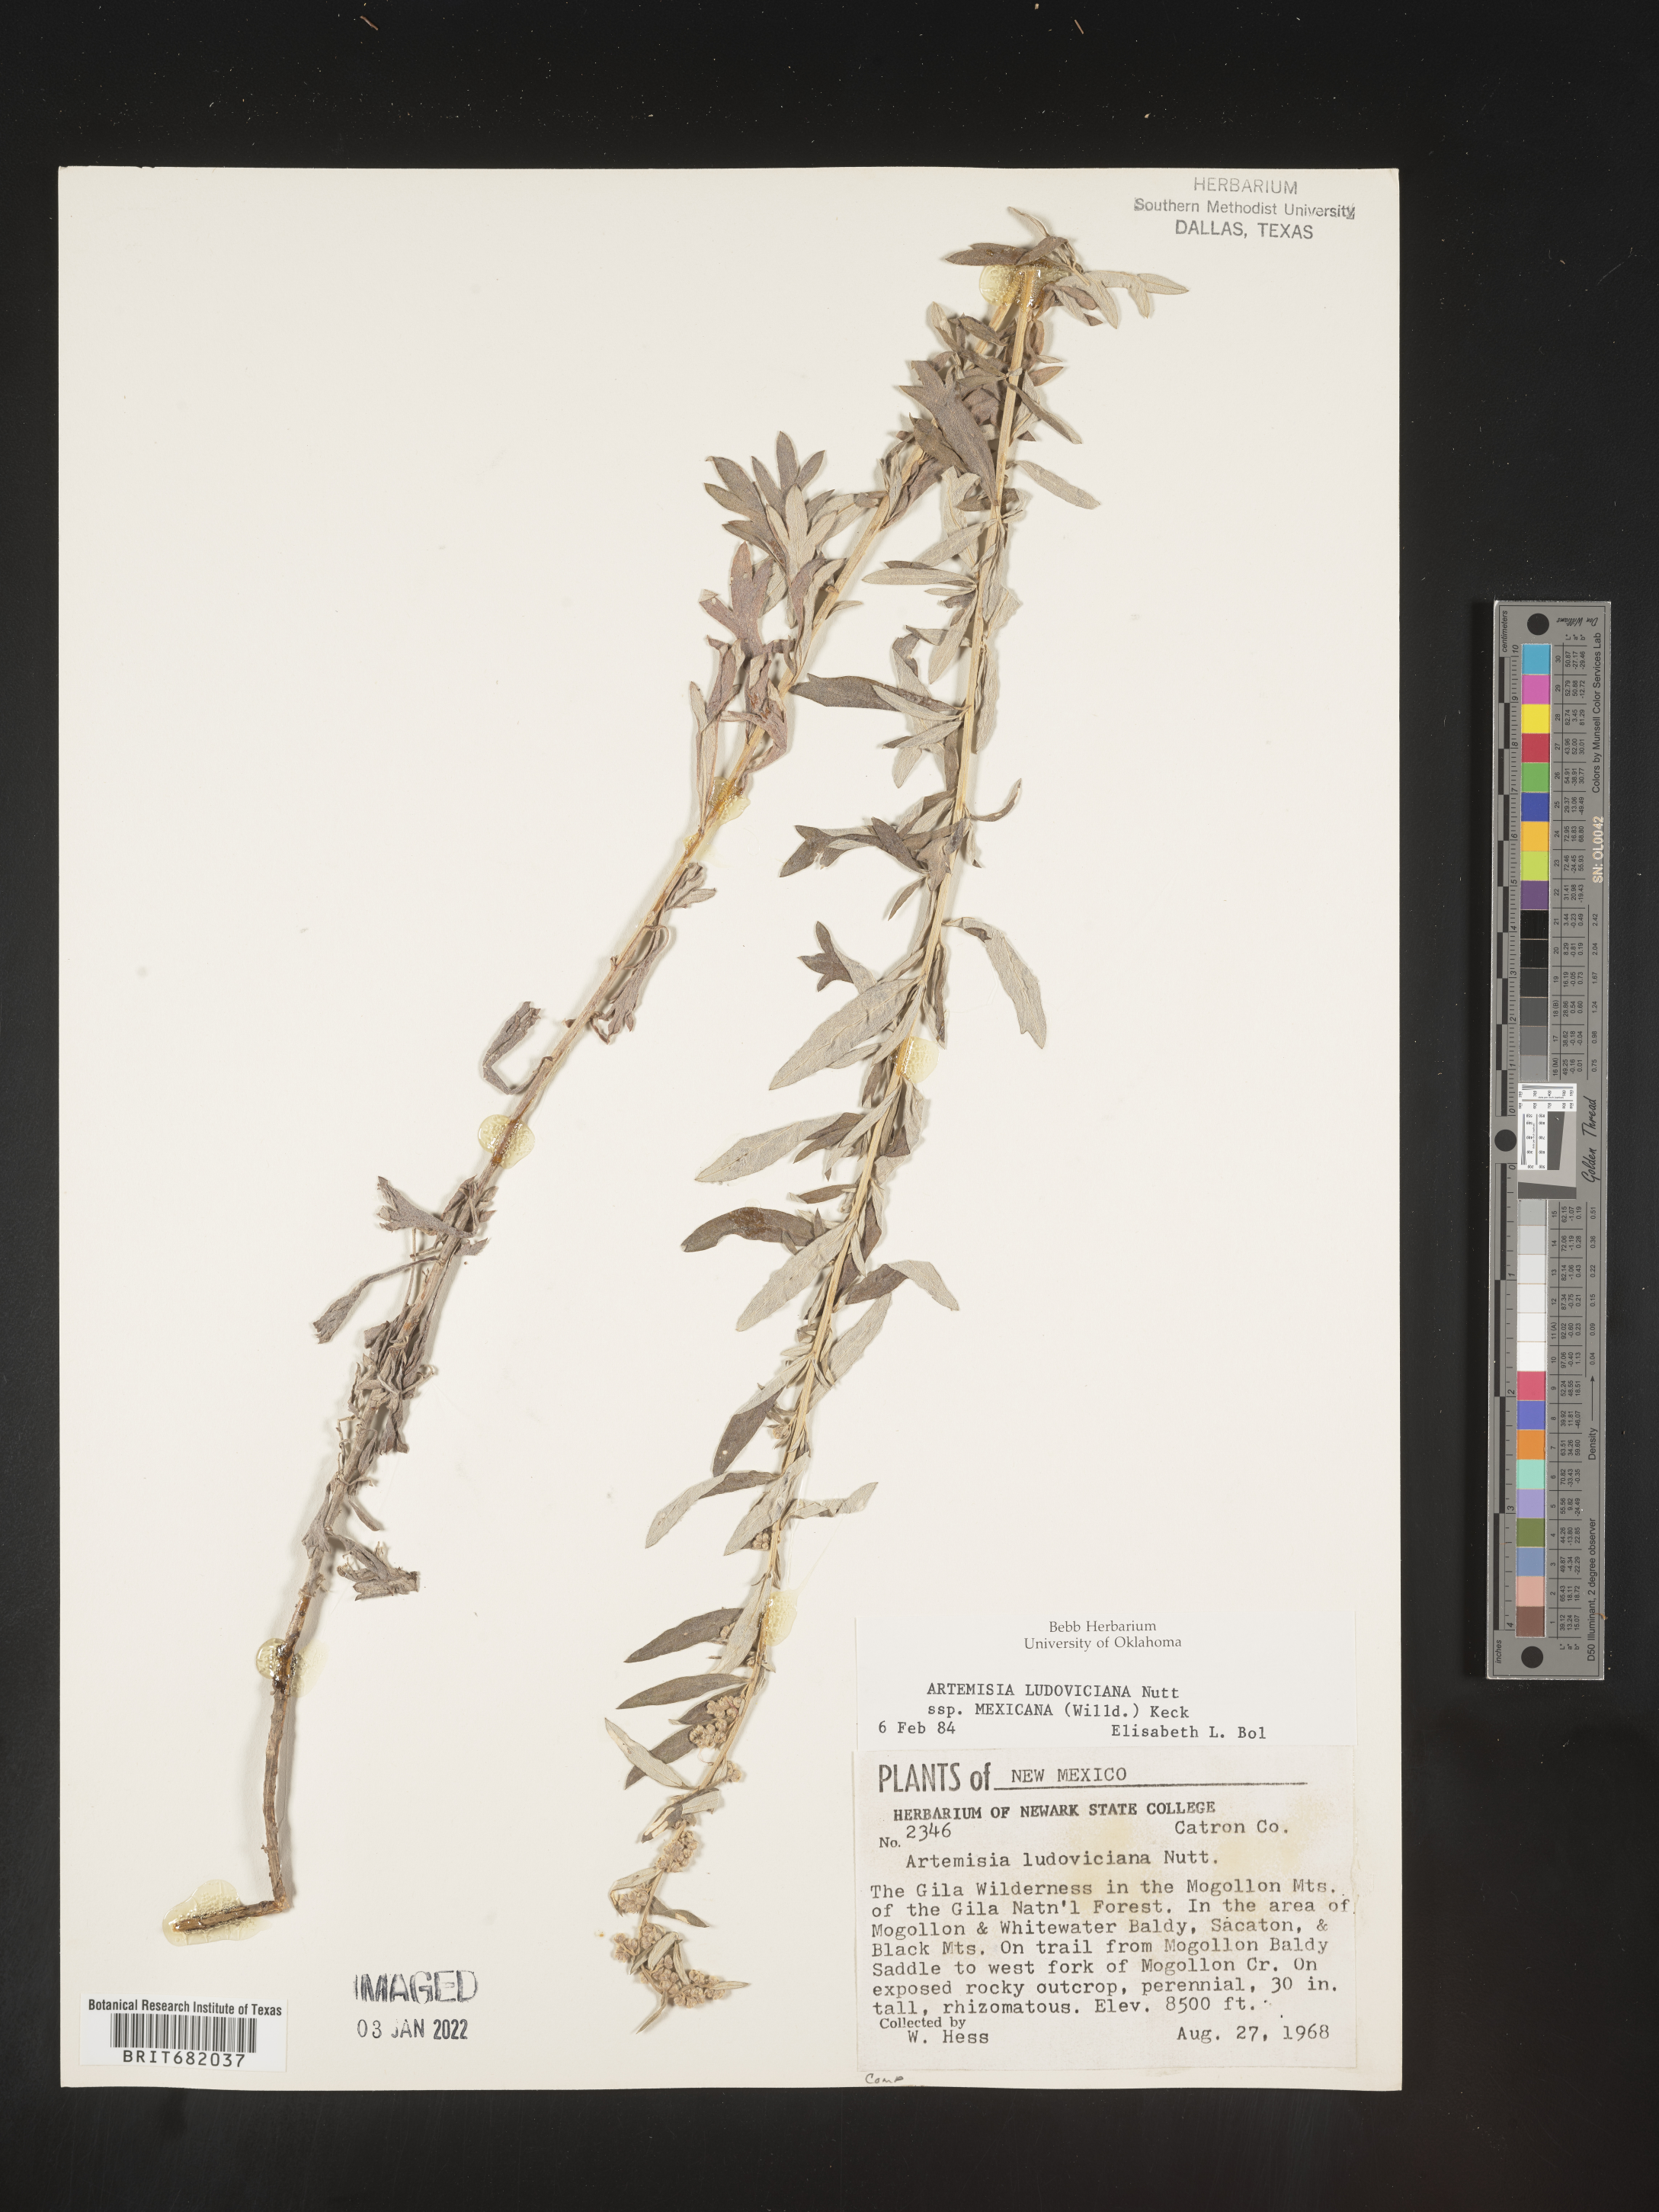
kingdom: Plantae
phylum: Tracheophyta
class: Magnoliopsida
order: Asterales
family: Asteraceae
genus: Artemisia
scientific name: Artemisia ludoviciana
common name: Western mugwort
